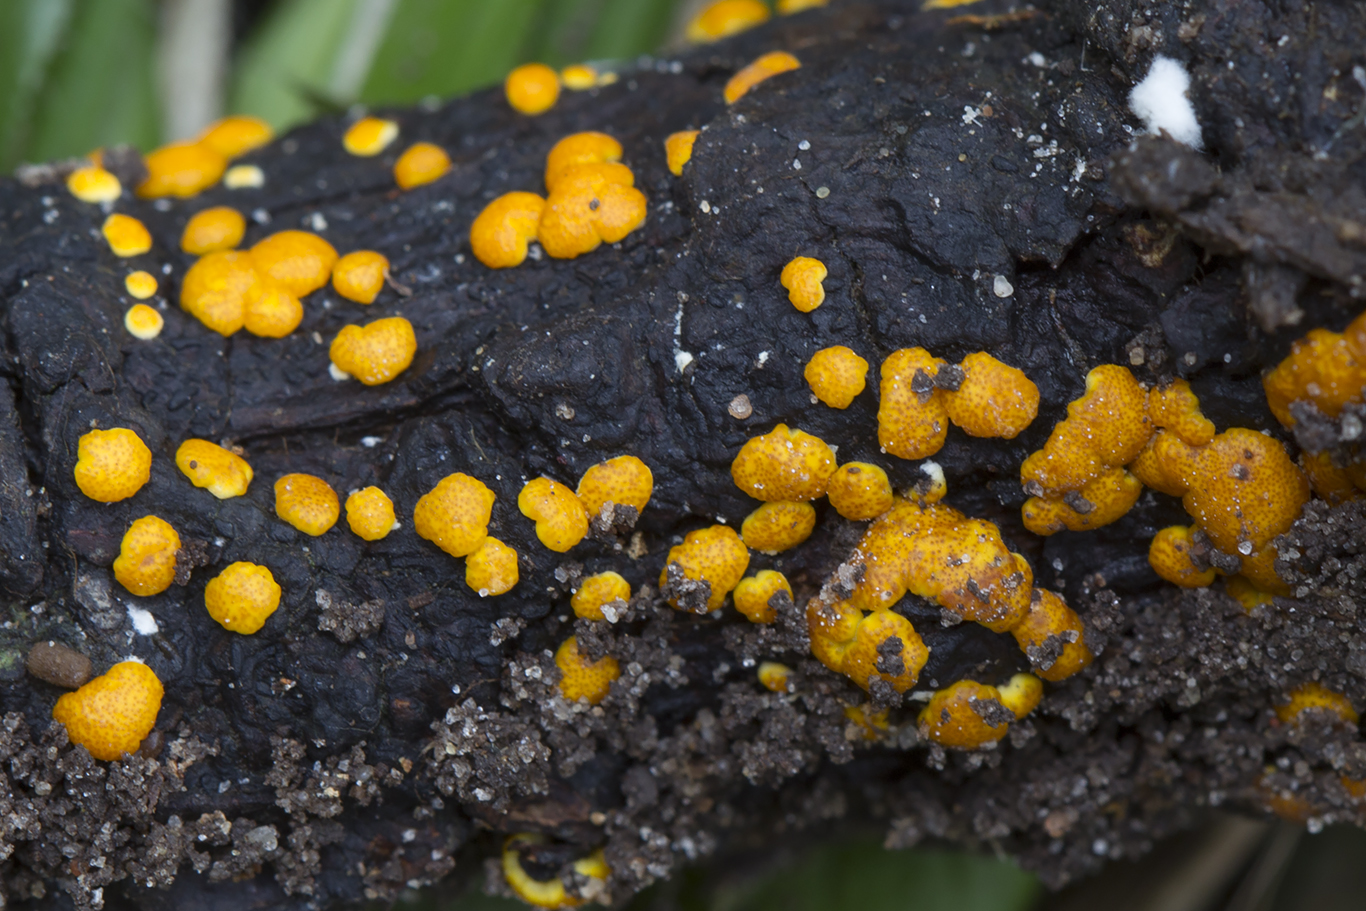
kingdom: Fungi
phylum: Ascomycota
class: Sordariomycetes
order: Hypocreales
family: Hypocreaceae
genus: Trichoderma
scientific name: Trichoderma
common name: kødkerne
